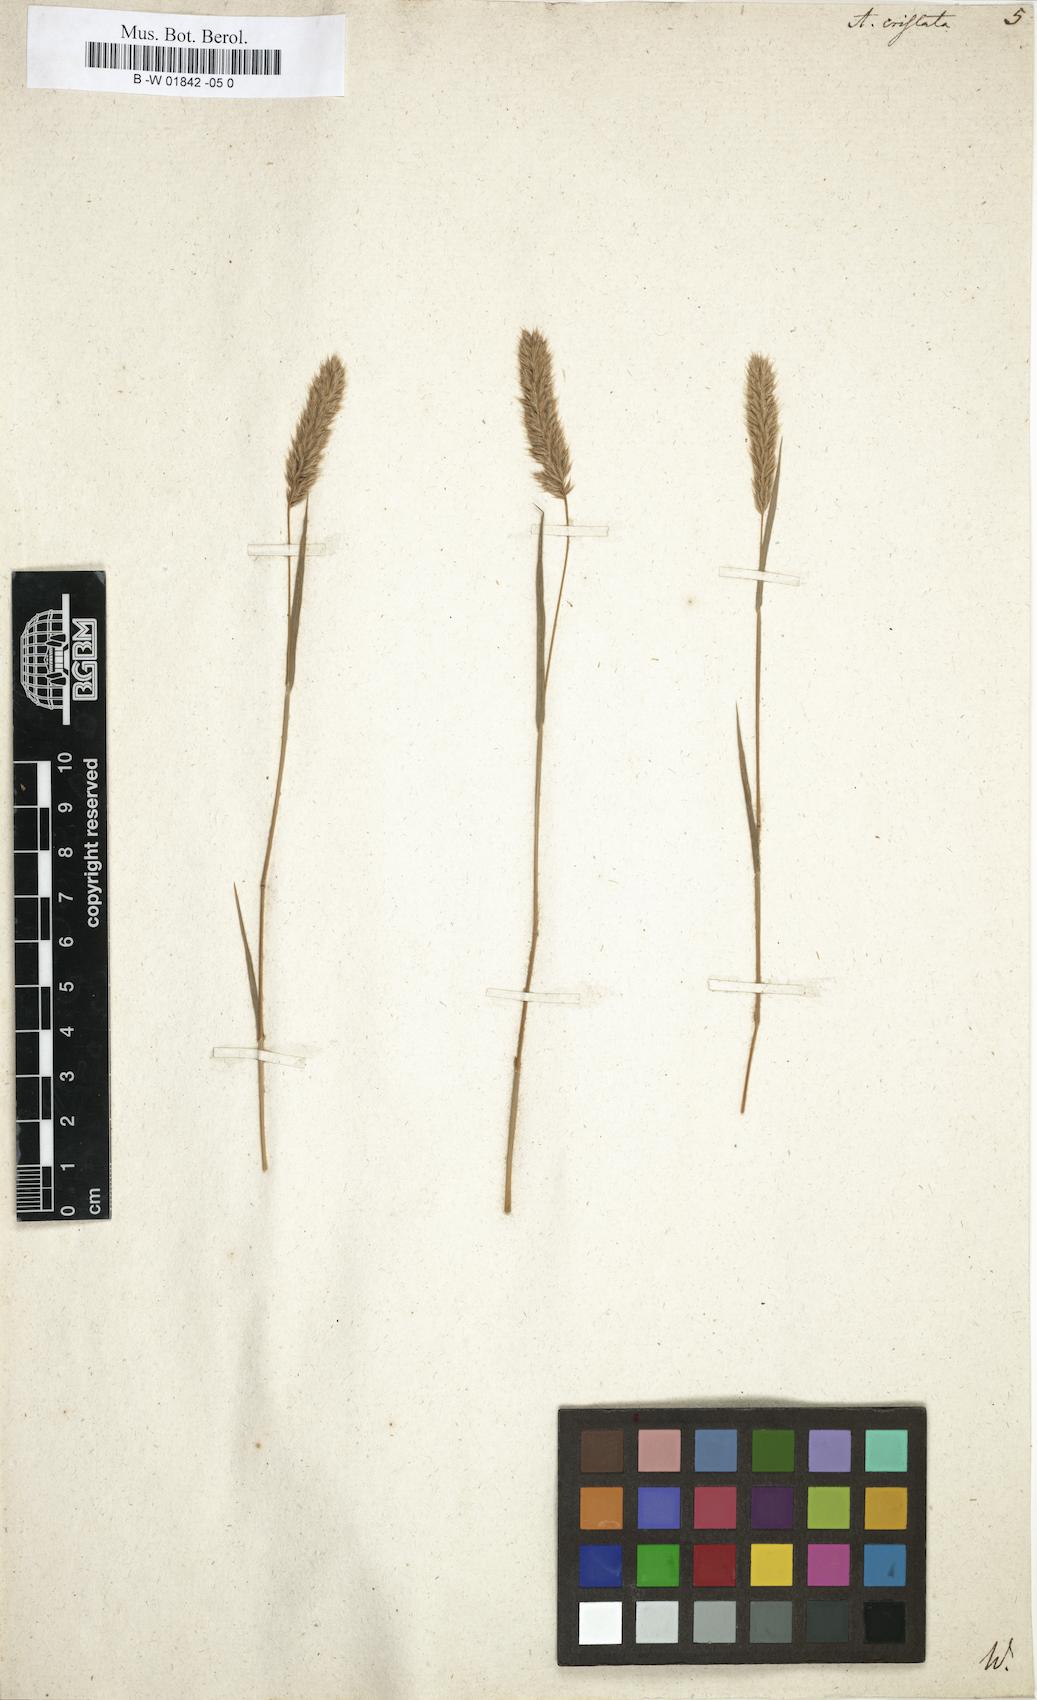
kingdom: Plantae
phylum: Tracheophyta
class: Liliopsida
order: Poales
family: Poaceae
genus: Koeleria
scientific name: Koeleria macrantha
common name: Crested hair-grass
